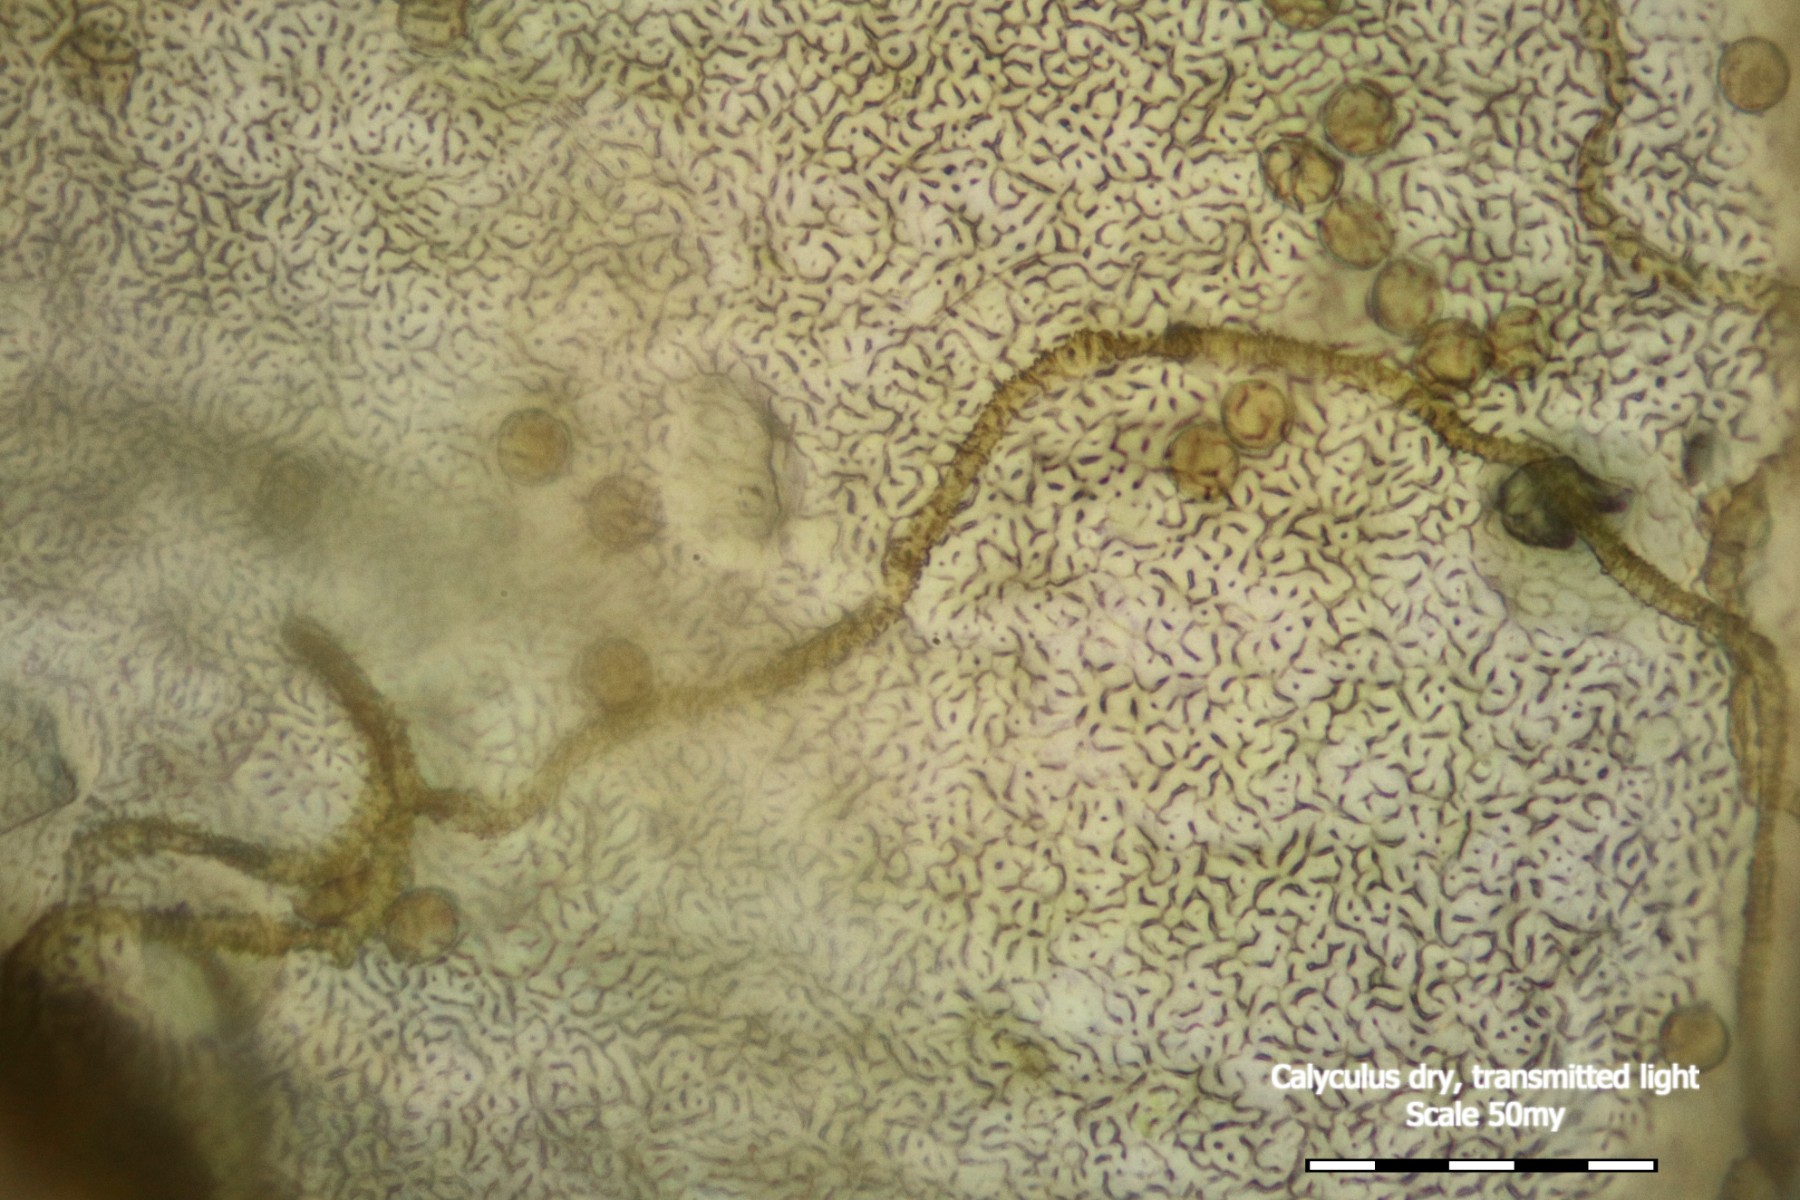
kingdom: Protozoa
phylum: Mycetozoa
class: Myxomycetes
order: Trichiales
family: Arcyriaceae
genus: Arcyria
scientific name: Arcyria ferruginea
